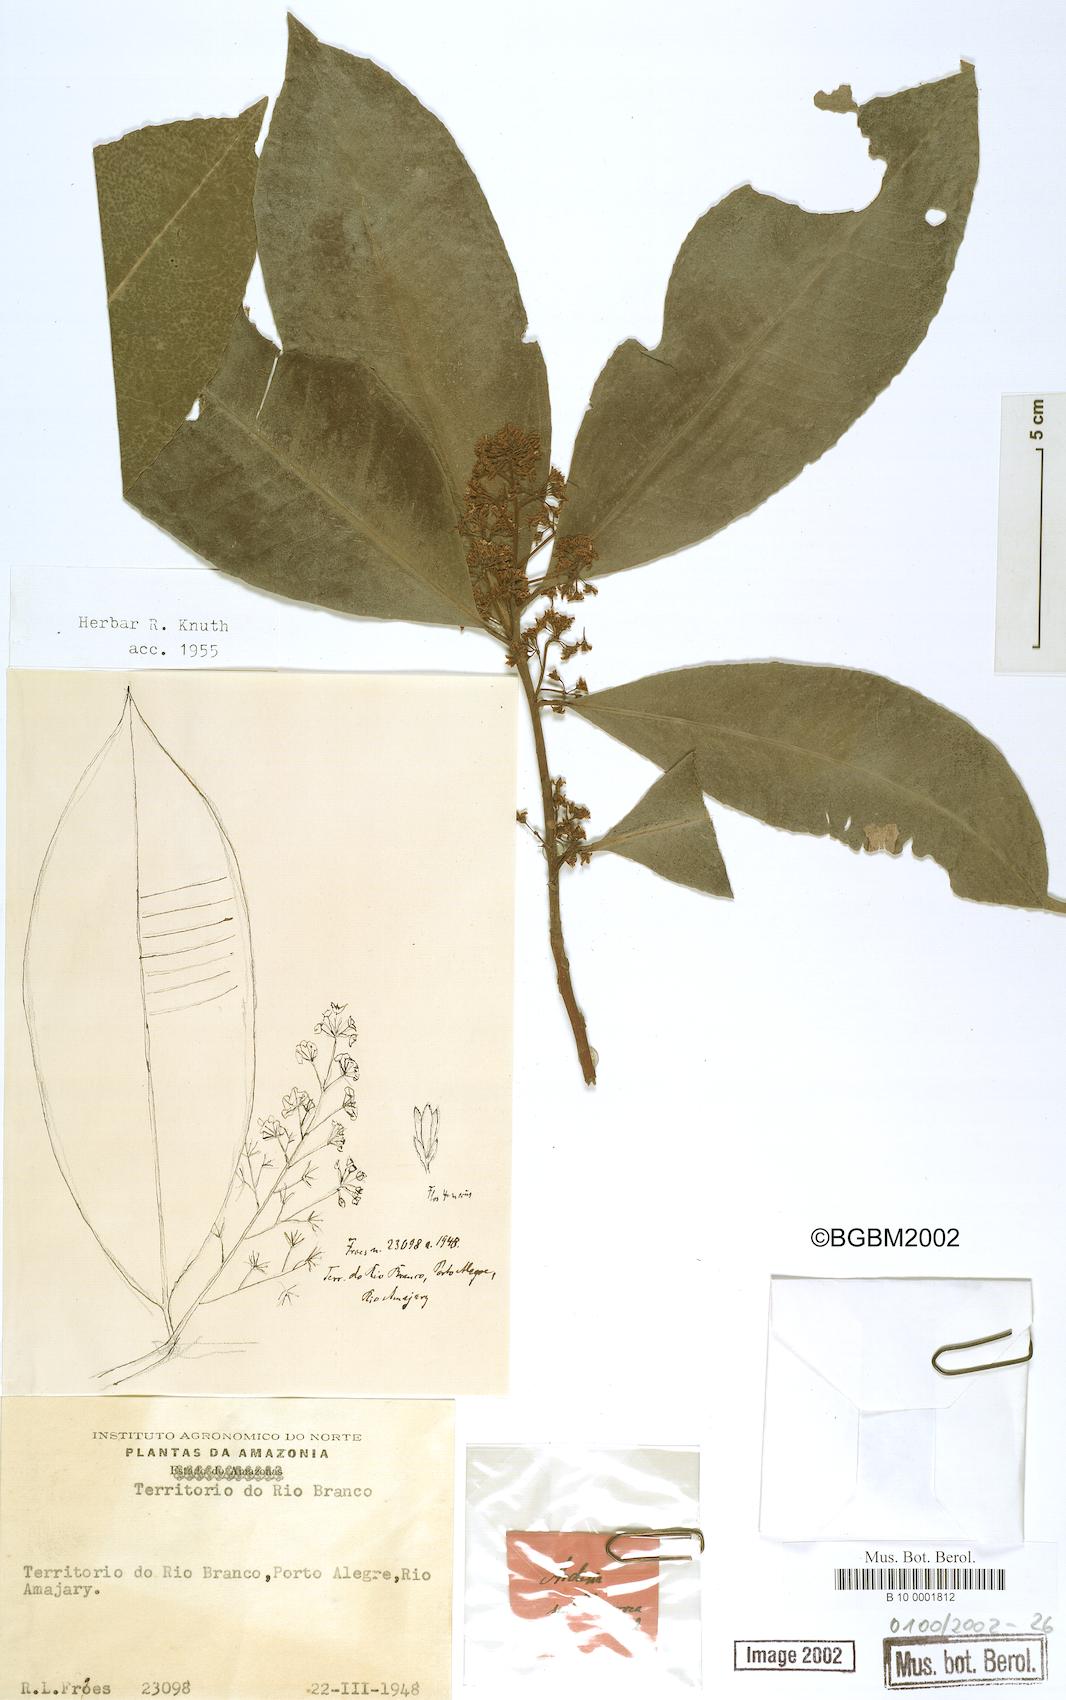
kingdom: Plantae
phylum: Tracheophyta
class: Magnoliopsida
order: Ericales
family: Primulaceae
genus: Ardisia
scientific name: Ardisia
